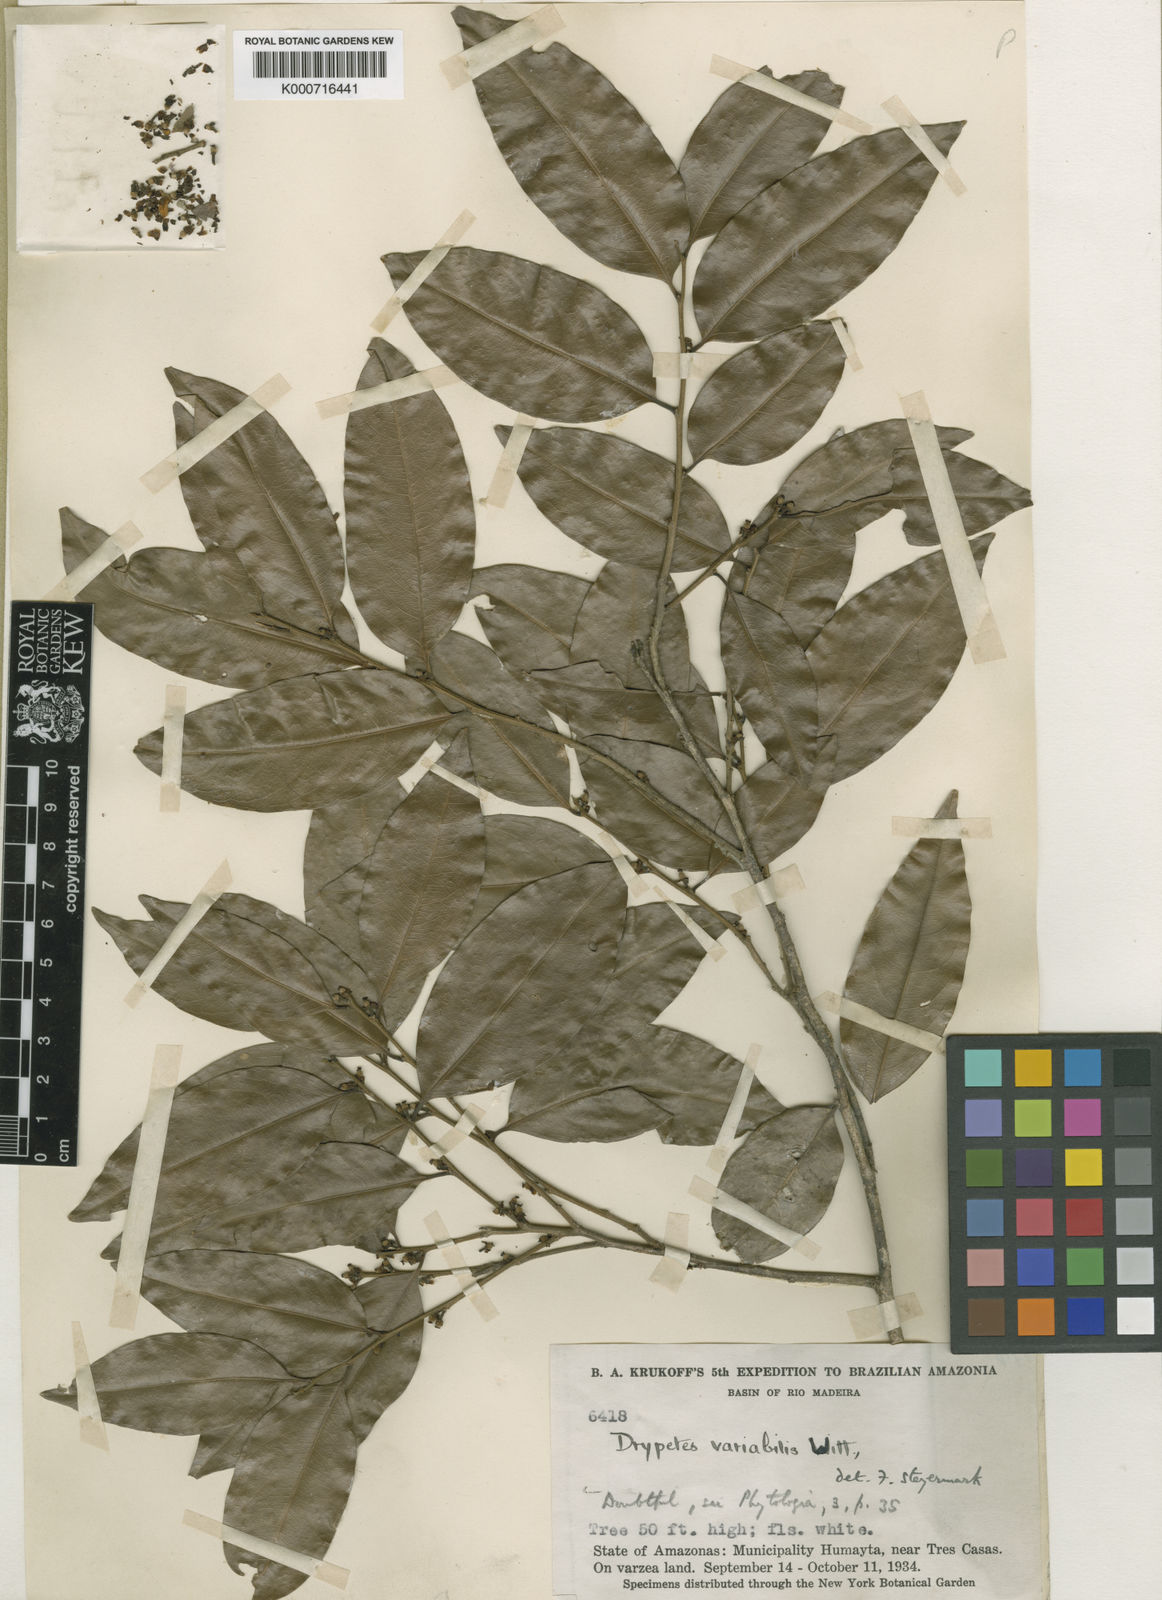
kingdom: Plantae
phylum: Tracheophyta
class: Magnoliopsida
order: Malpighiales
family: Putranjivaceae
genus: Drypetes
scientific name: Drypetes variabilis
